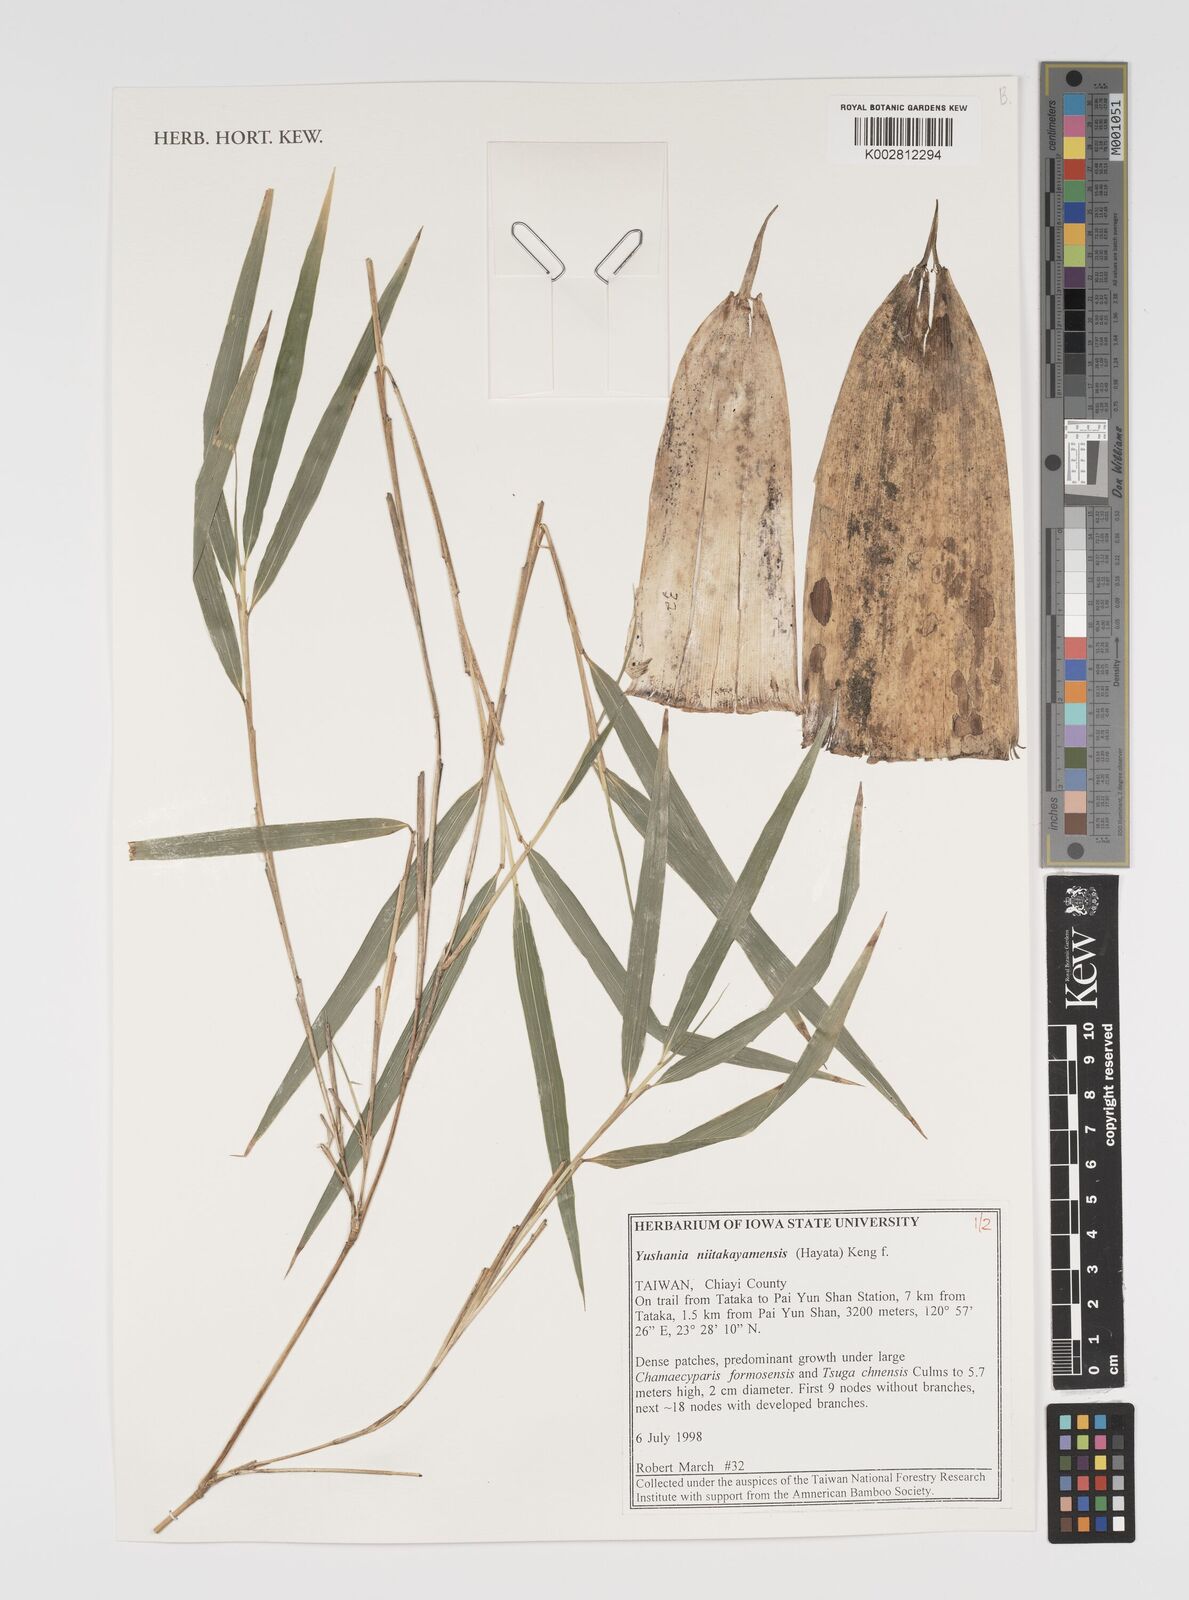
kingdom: Plantae
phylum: Tracheophyta
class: Liliopsida
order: Poales
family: Poaceae
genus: Yushania
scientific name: Yushania niitakayamensis
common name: Yushan cane
